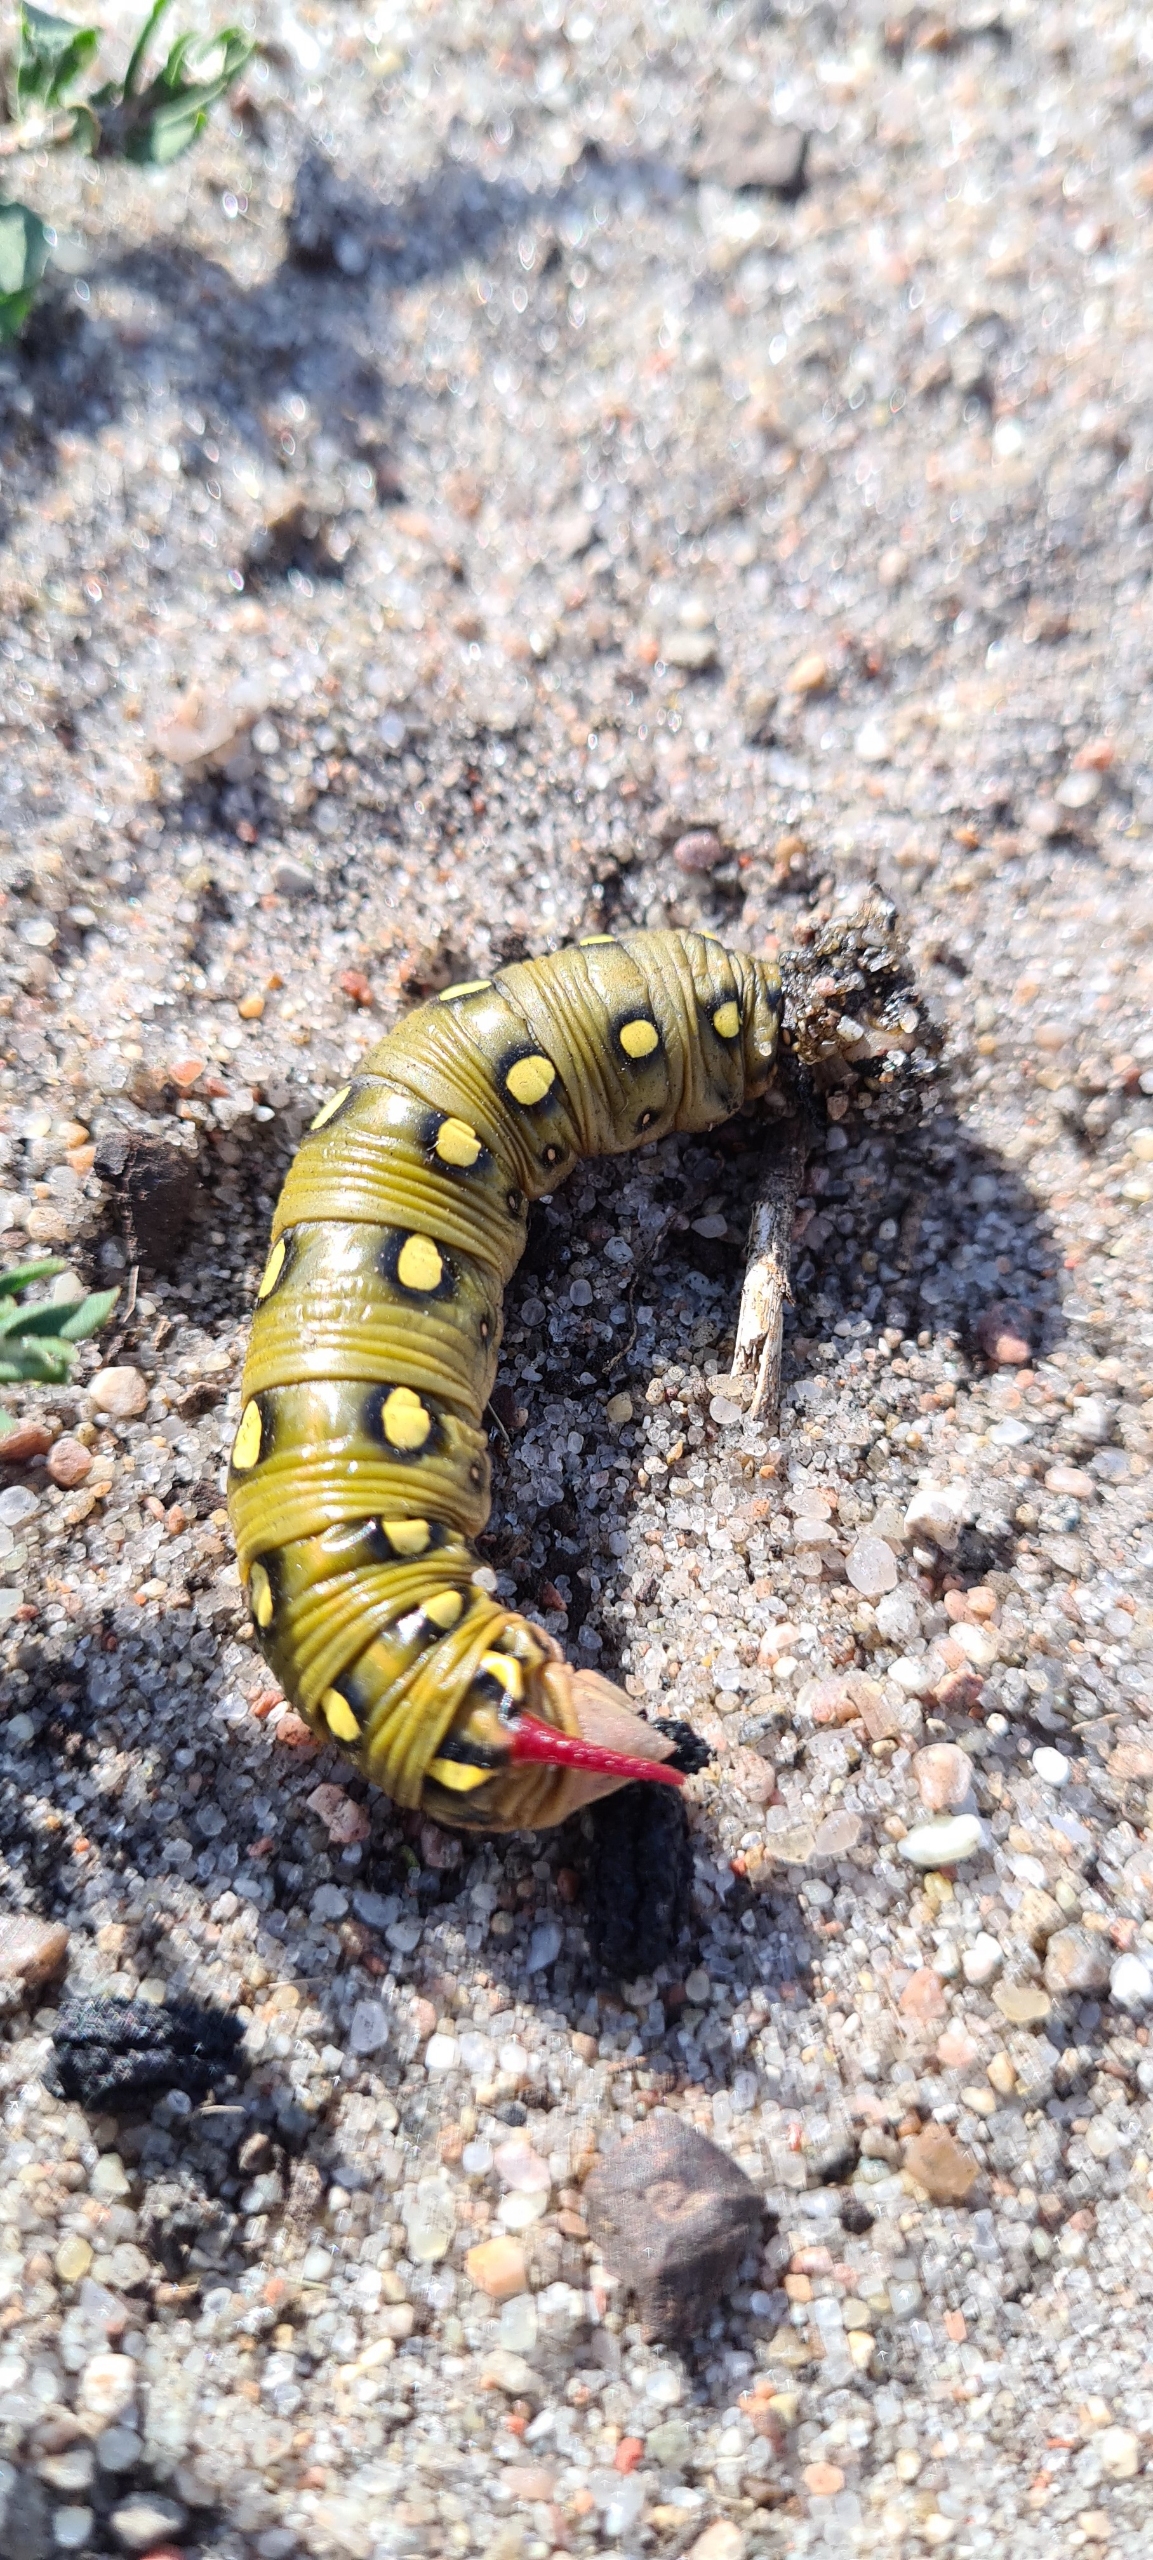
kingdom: Animalia
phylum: Arthropoda
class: Insecta
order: Lepidoptera
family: Sphingidae
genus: Hyles
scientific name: Hyles gallii
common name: Snerresværmer
